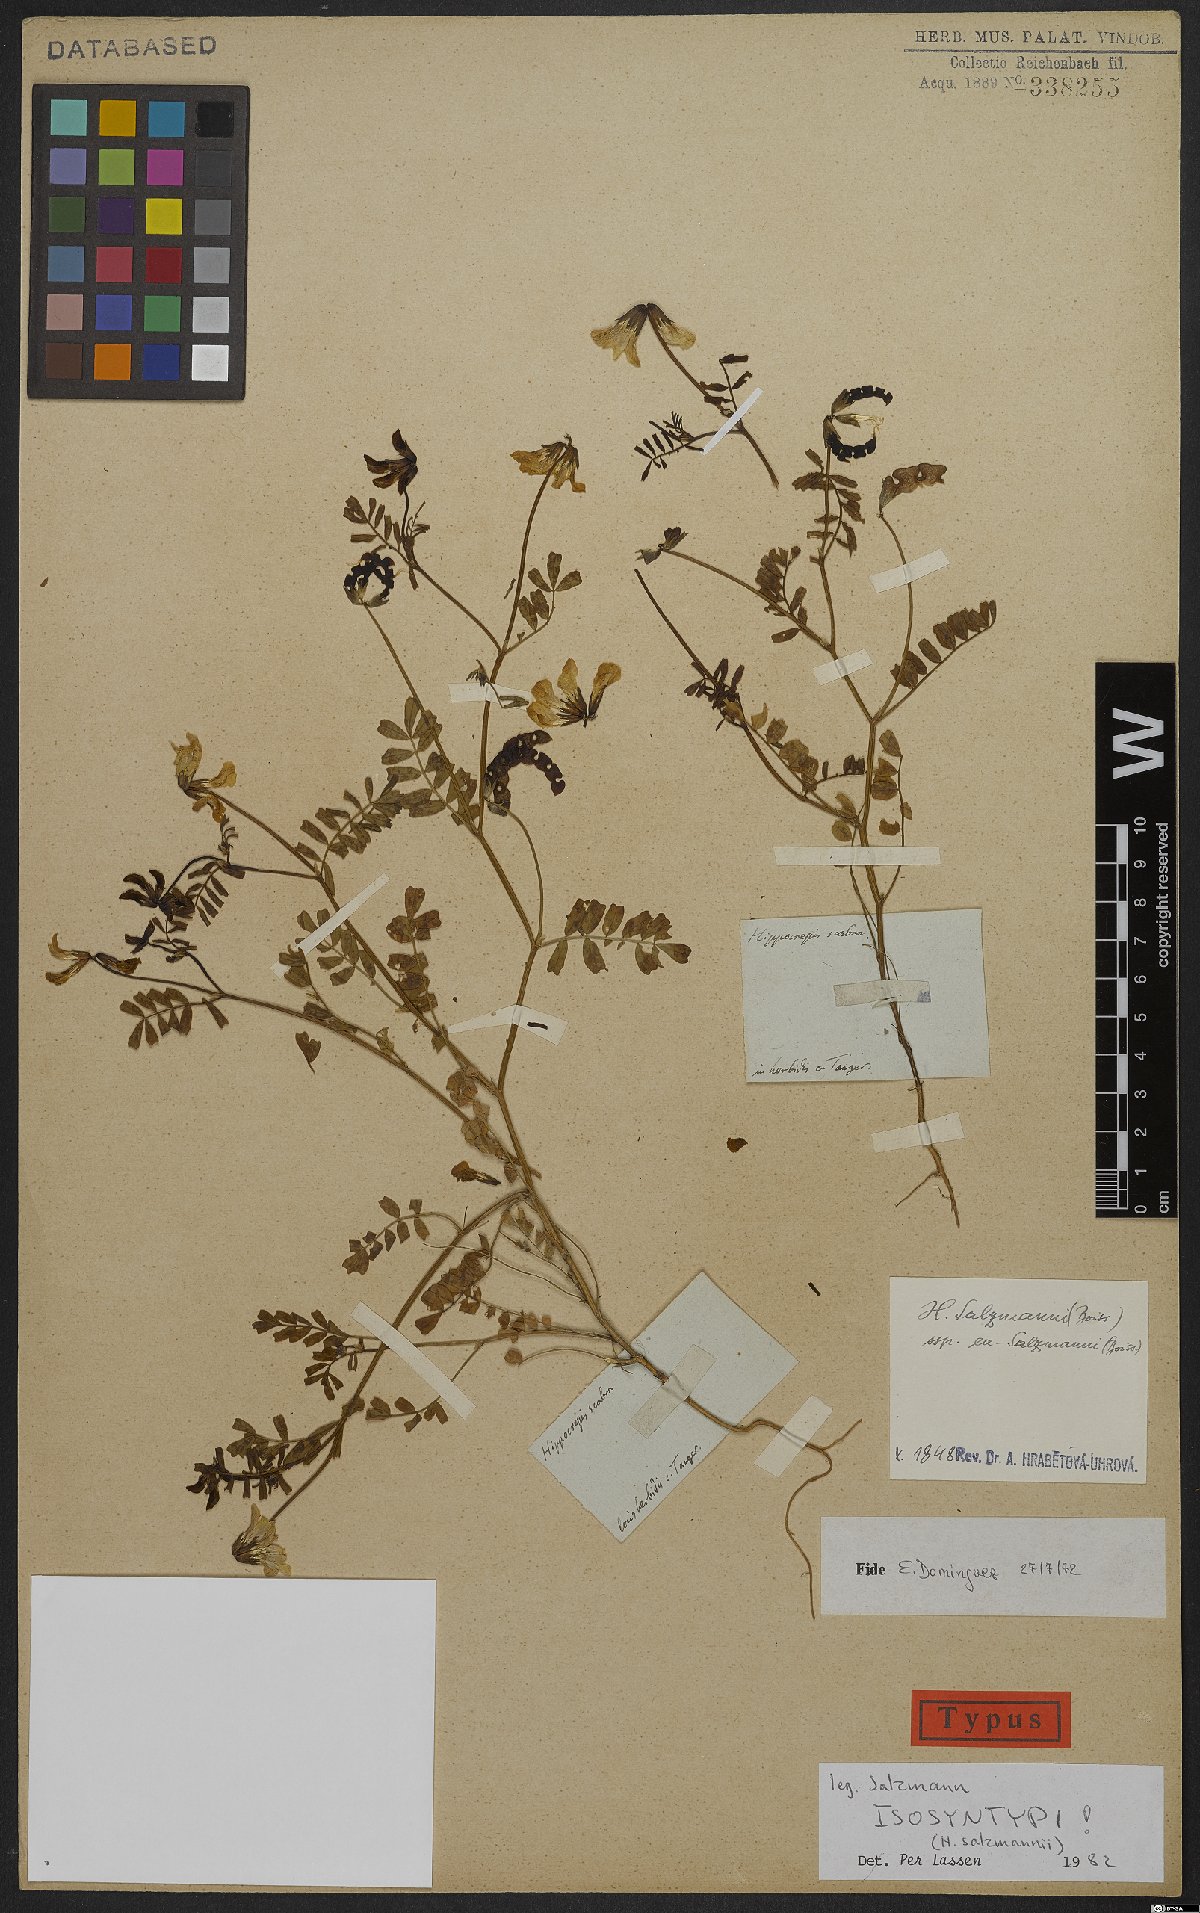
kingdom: Plantae
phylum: Tracheophyta
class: Magnoliopsida
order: Fabales
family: Fabaceae
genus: Hippocrepis
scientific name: Hippocrepis salzmannii
